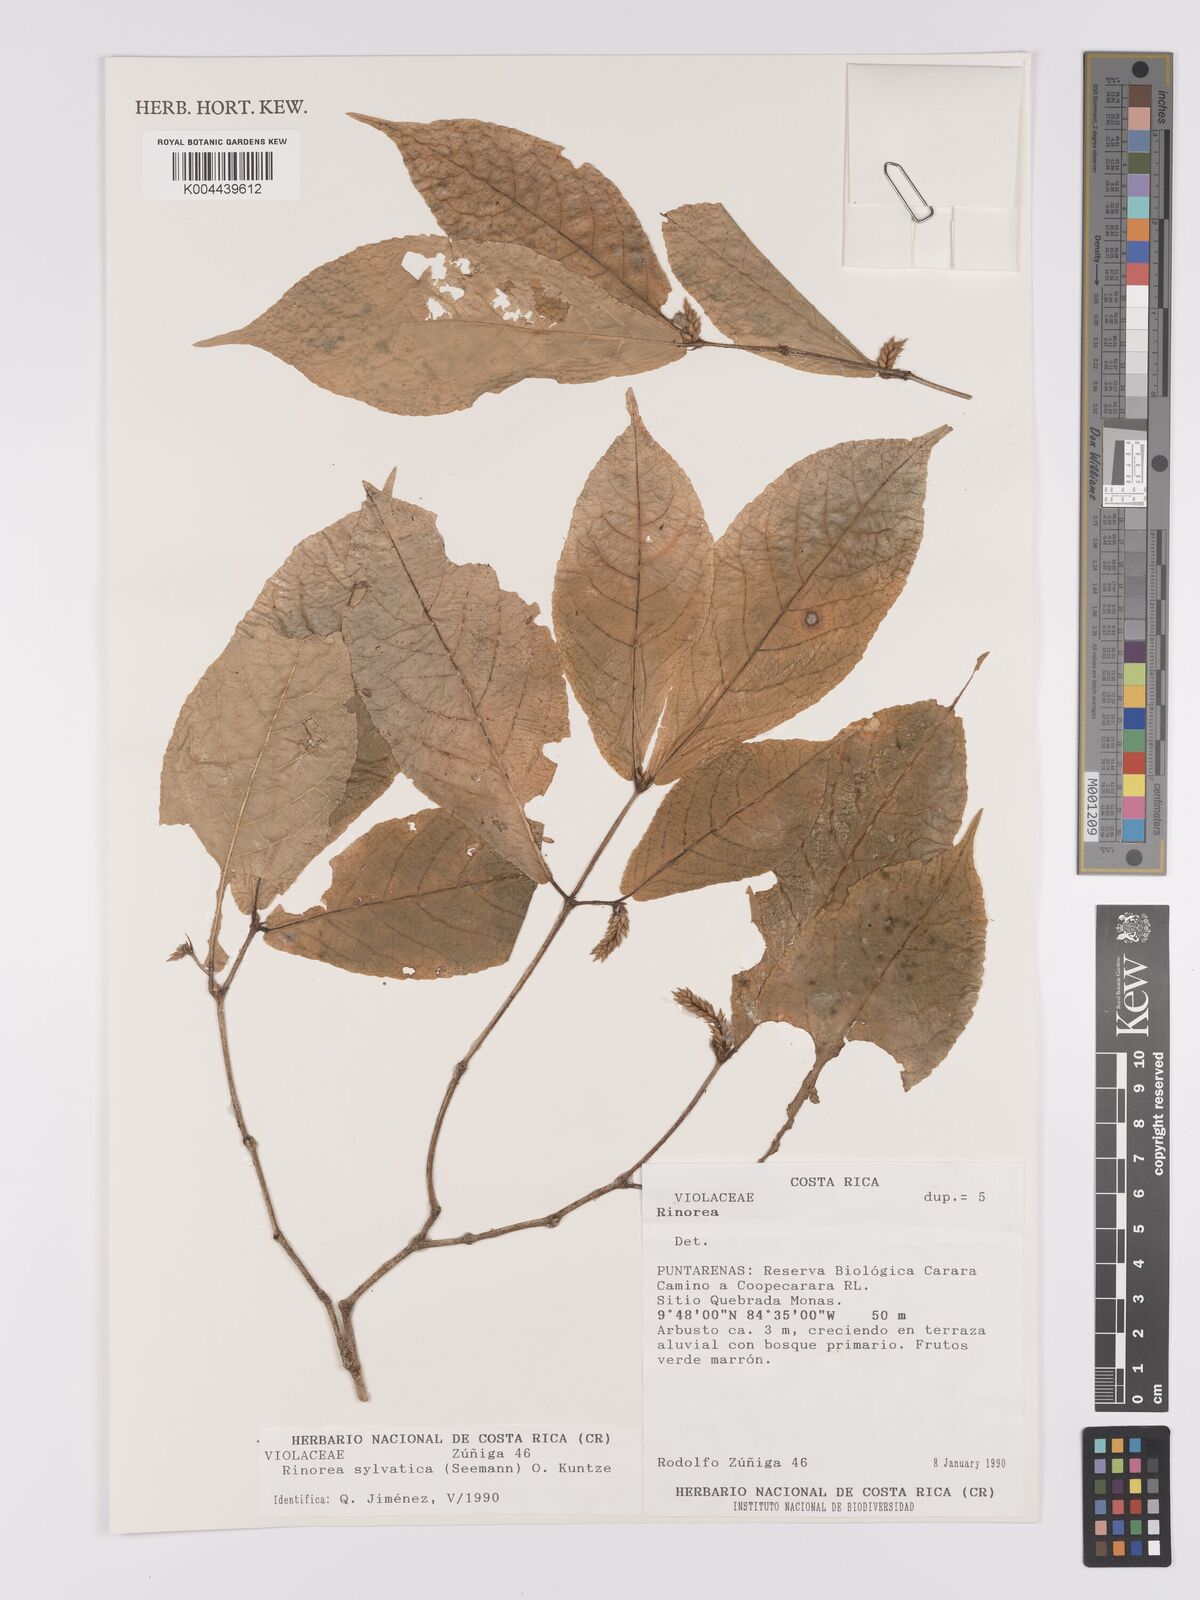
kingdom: Plantae
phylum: Tracheophyta
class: Magnoliopsida
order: Malpighiales
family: Violaceae
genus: Rinorea
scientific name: Rinorea sylvatica
